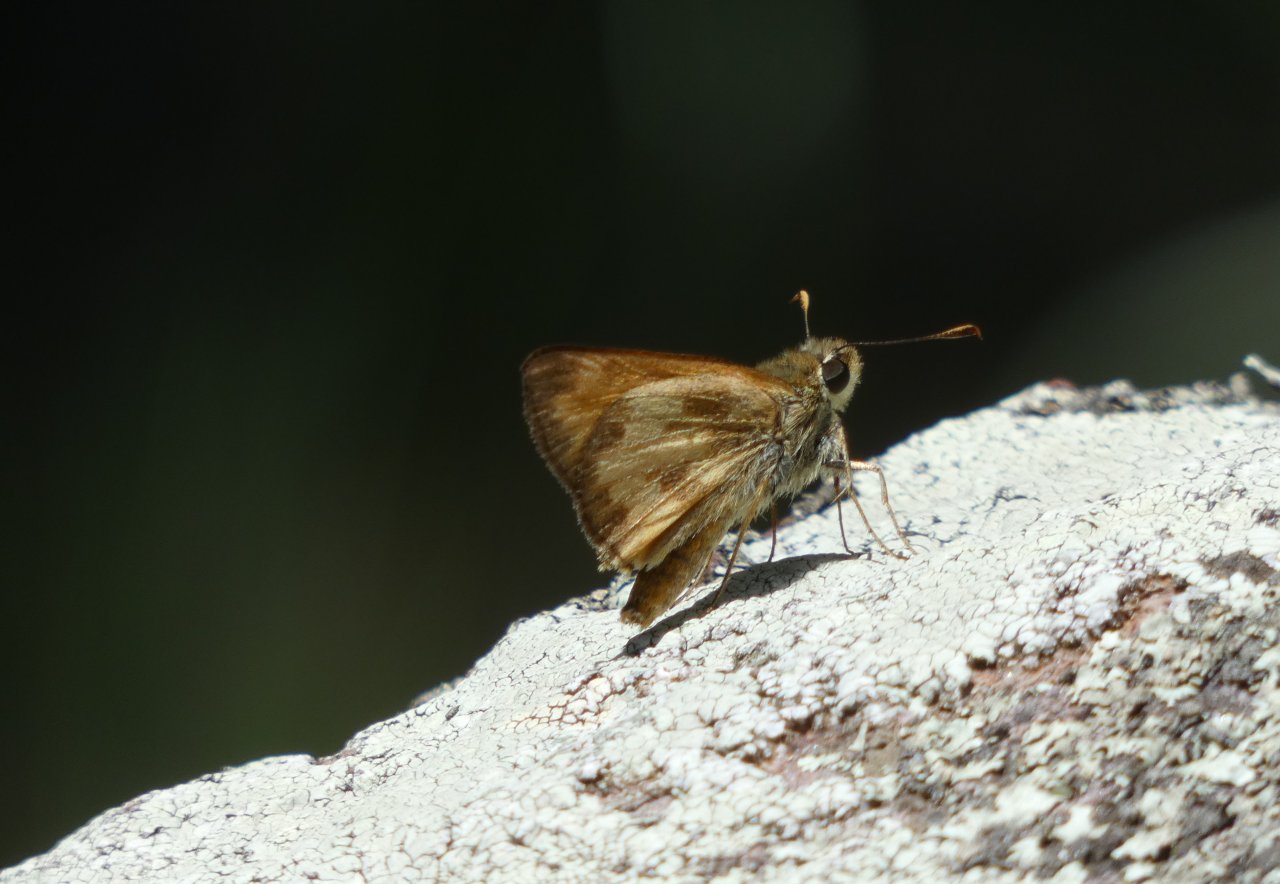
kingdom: Animalia
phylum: Arthropoda
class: Insecta
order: Lepidoptera
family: Hesperiidae
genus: Lon
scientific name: Lon taxiles
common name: Taxiles Skipper
